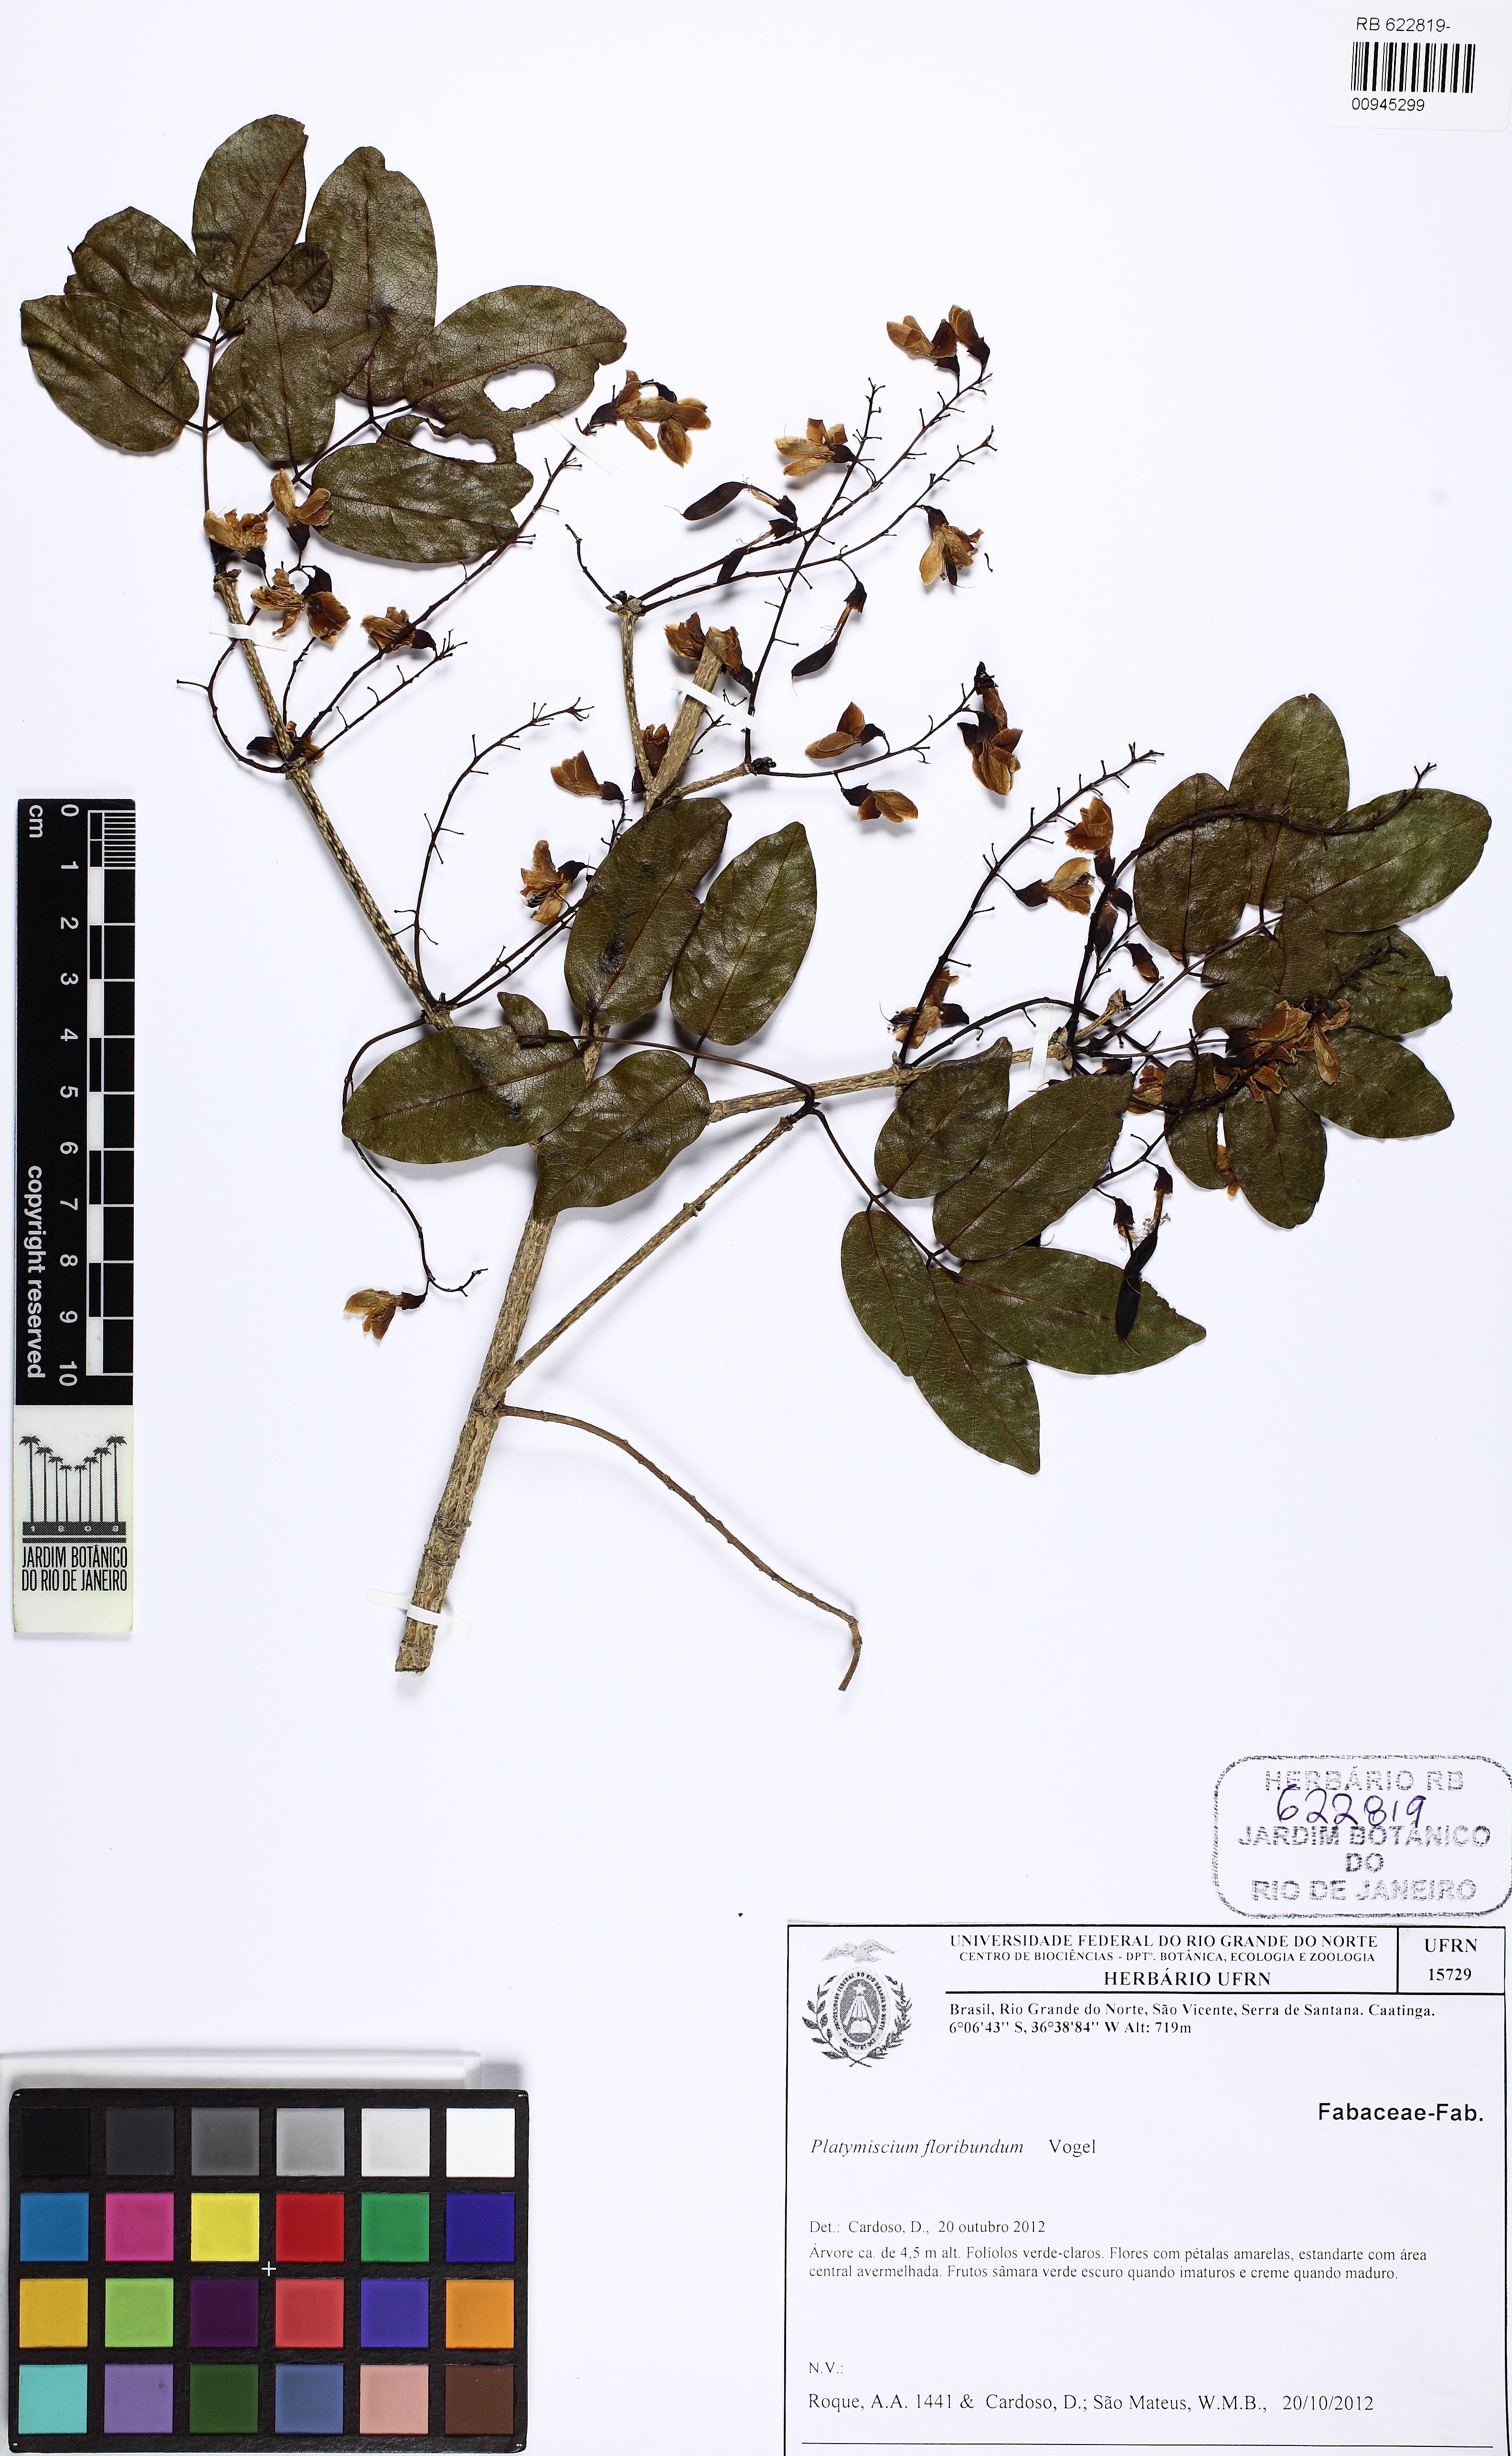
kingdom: Plantae
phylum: Tracheophyta
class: Magnoliopsida
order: Fabales
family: Fabaceae
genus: Platymiscium
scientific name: Platymiscium floribundum
